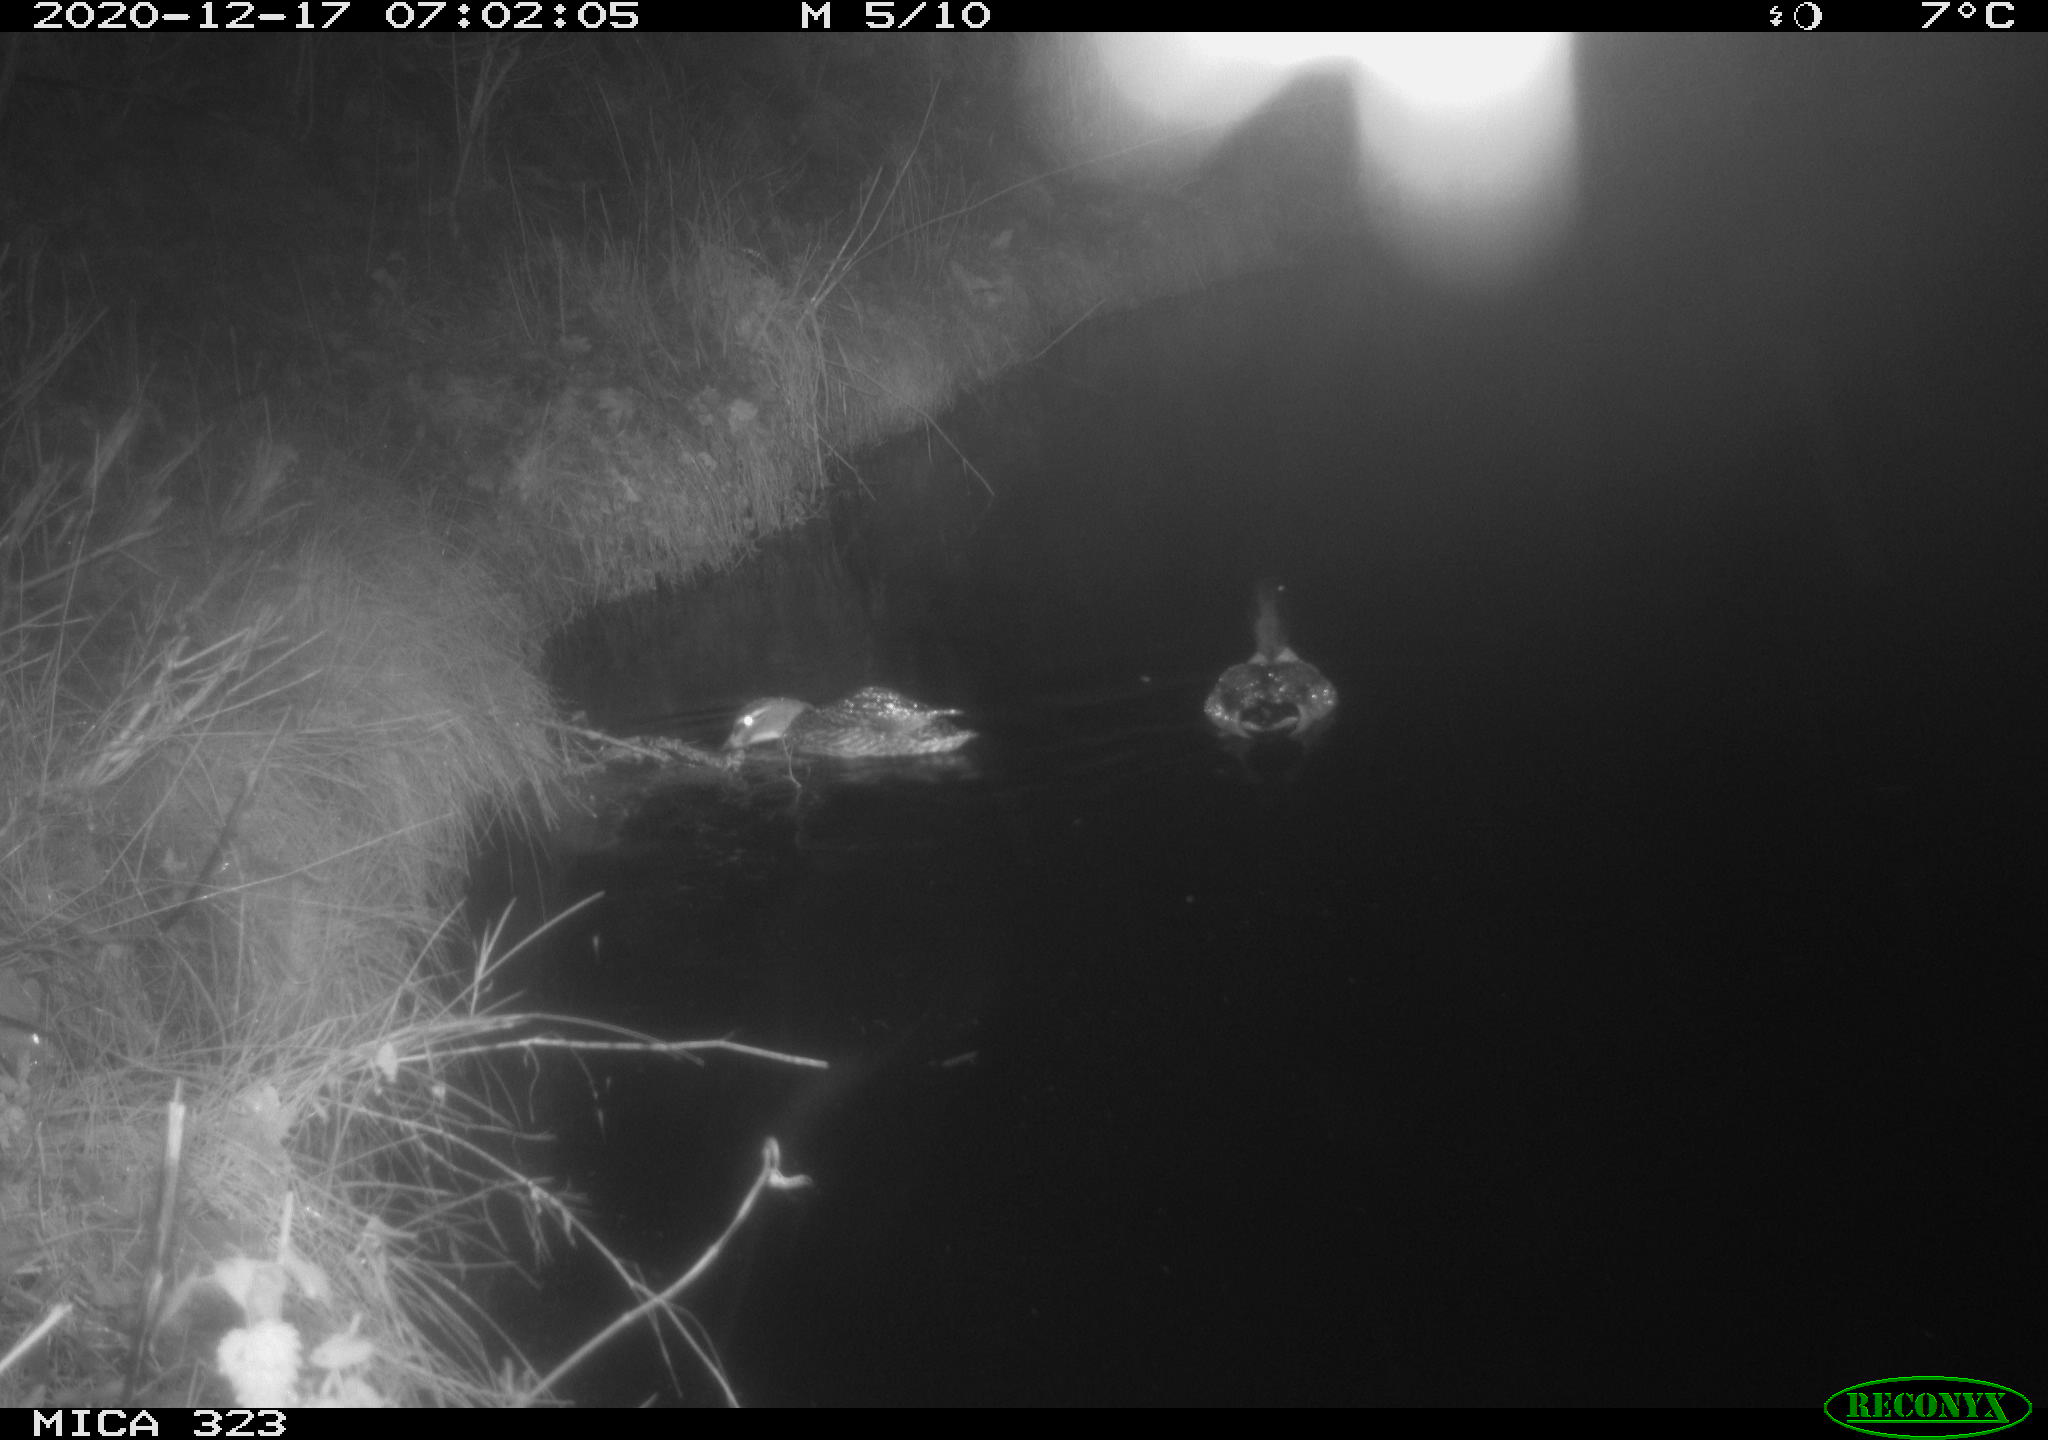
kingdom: Animalia
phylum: Chordata
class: Aves
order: Anseriformes
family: Anatidae
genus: Anas
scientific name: Anas platyrhynchos
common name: Mallard
